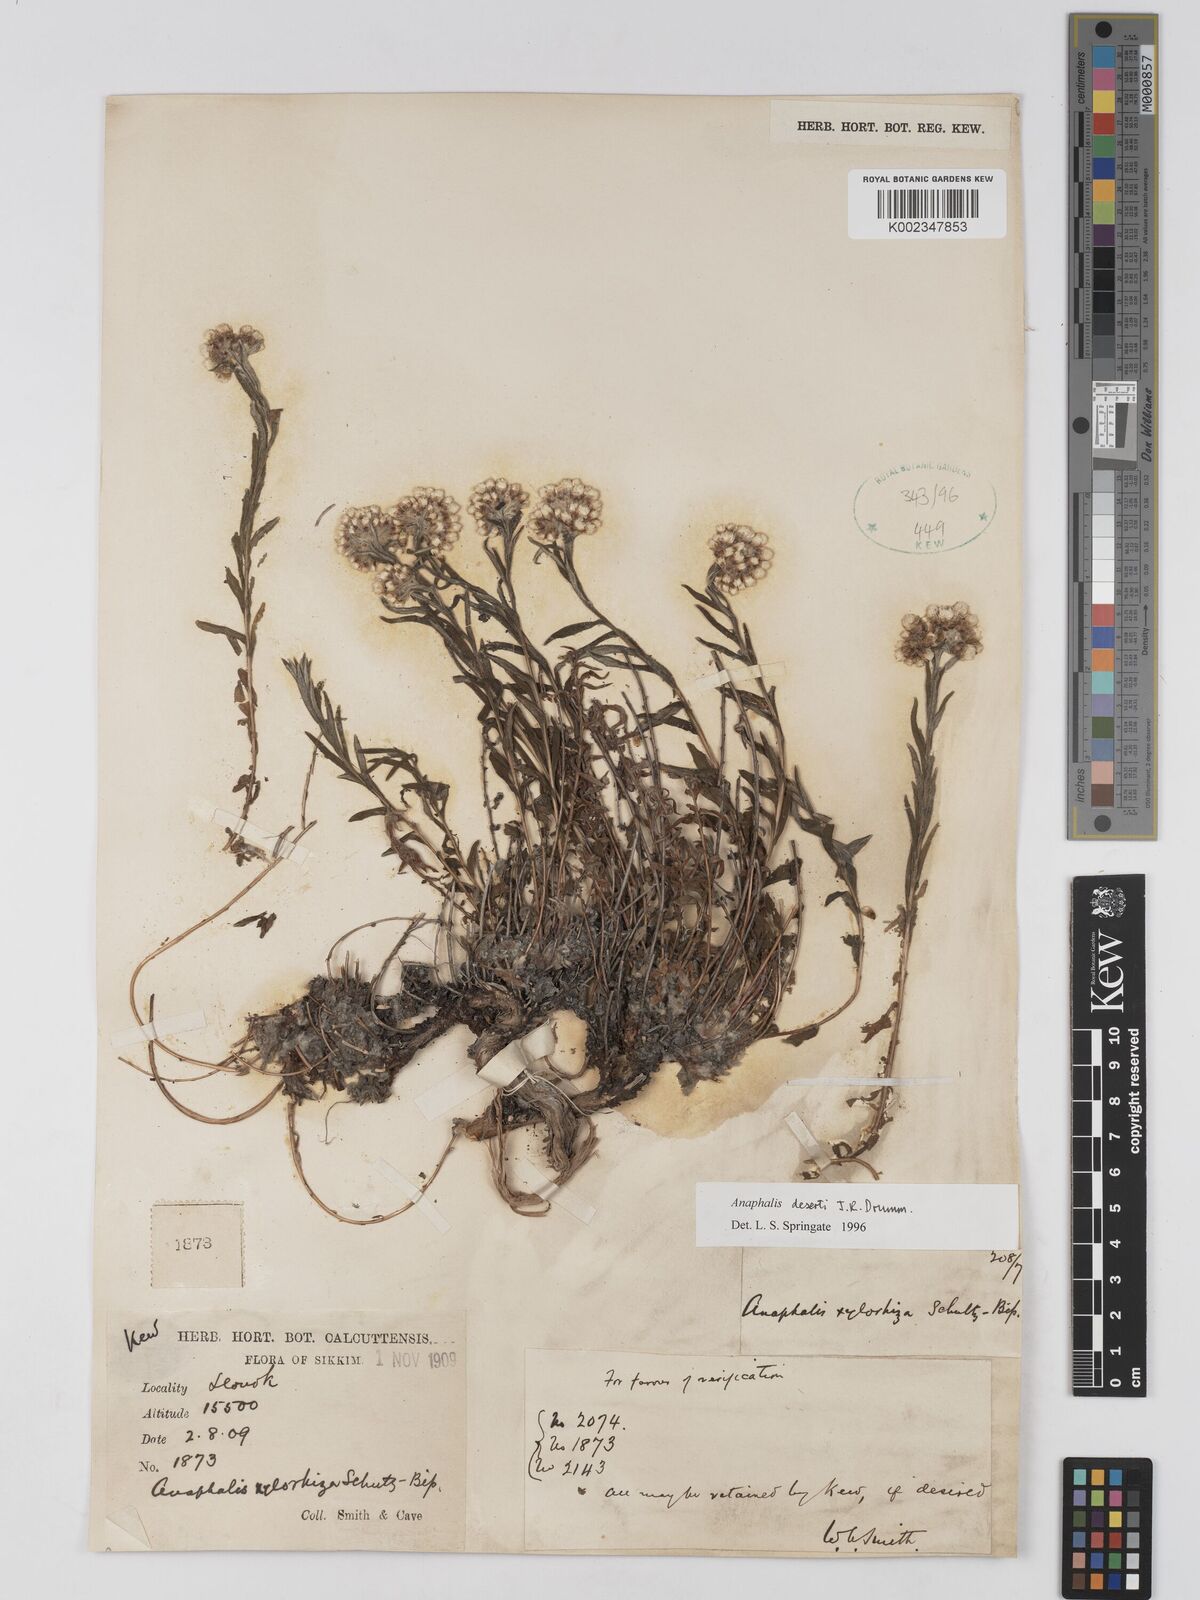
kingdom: Plantae
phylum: Tracheophyta
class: Magnoliopsida
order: Asterales
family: Asteraceae
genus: Anaphalis
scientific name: Anaphalis deserti
